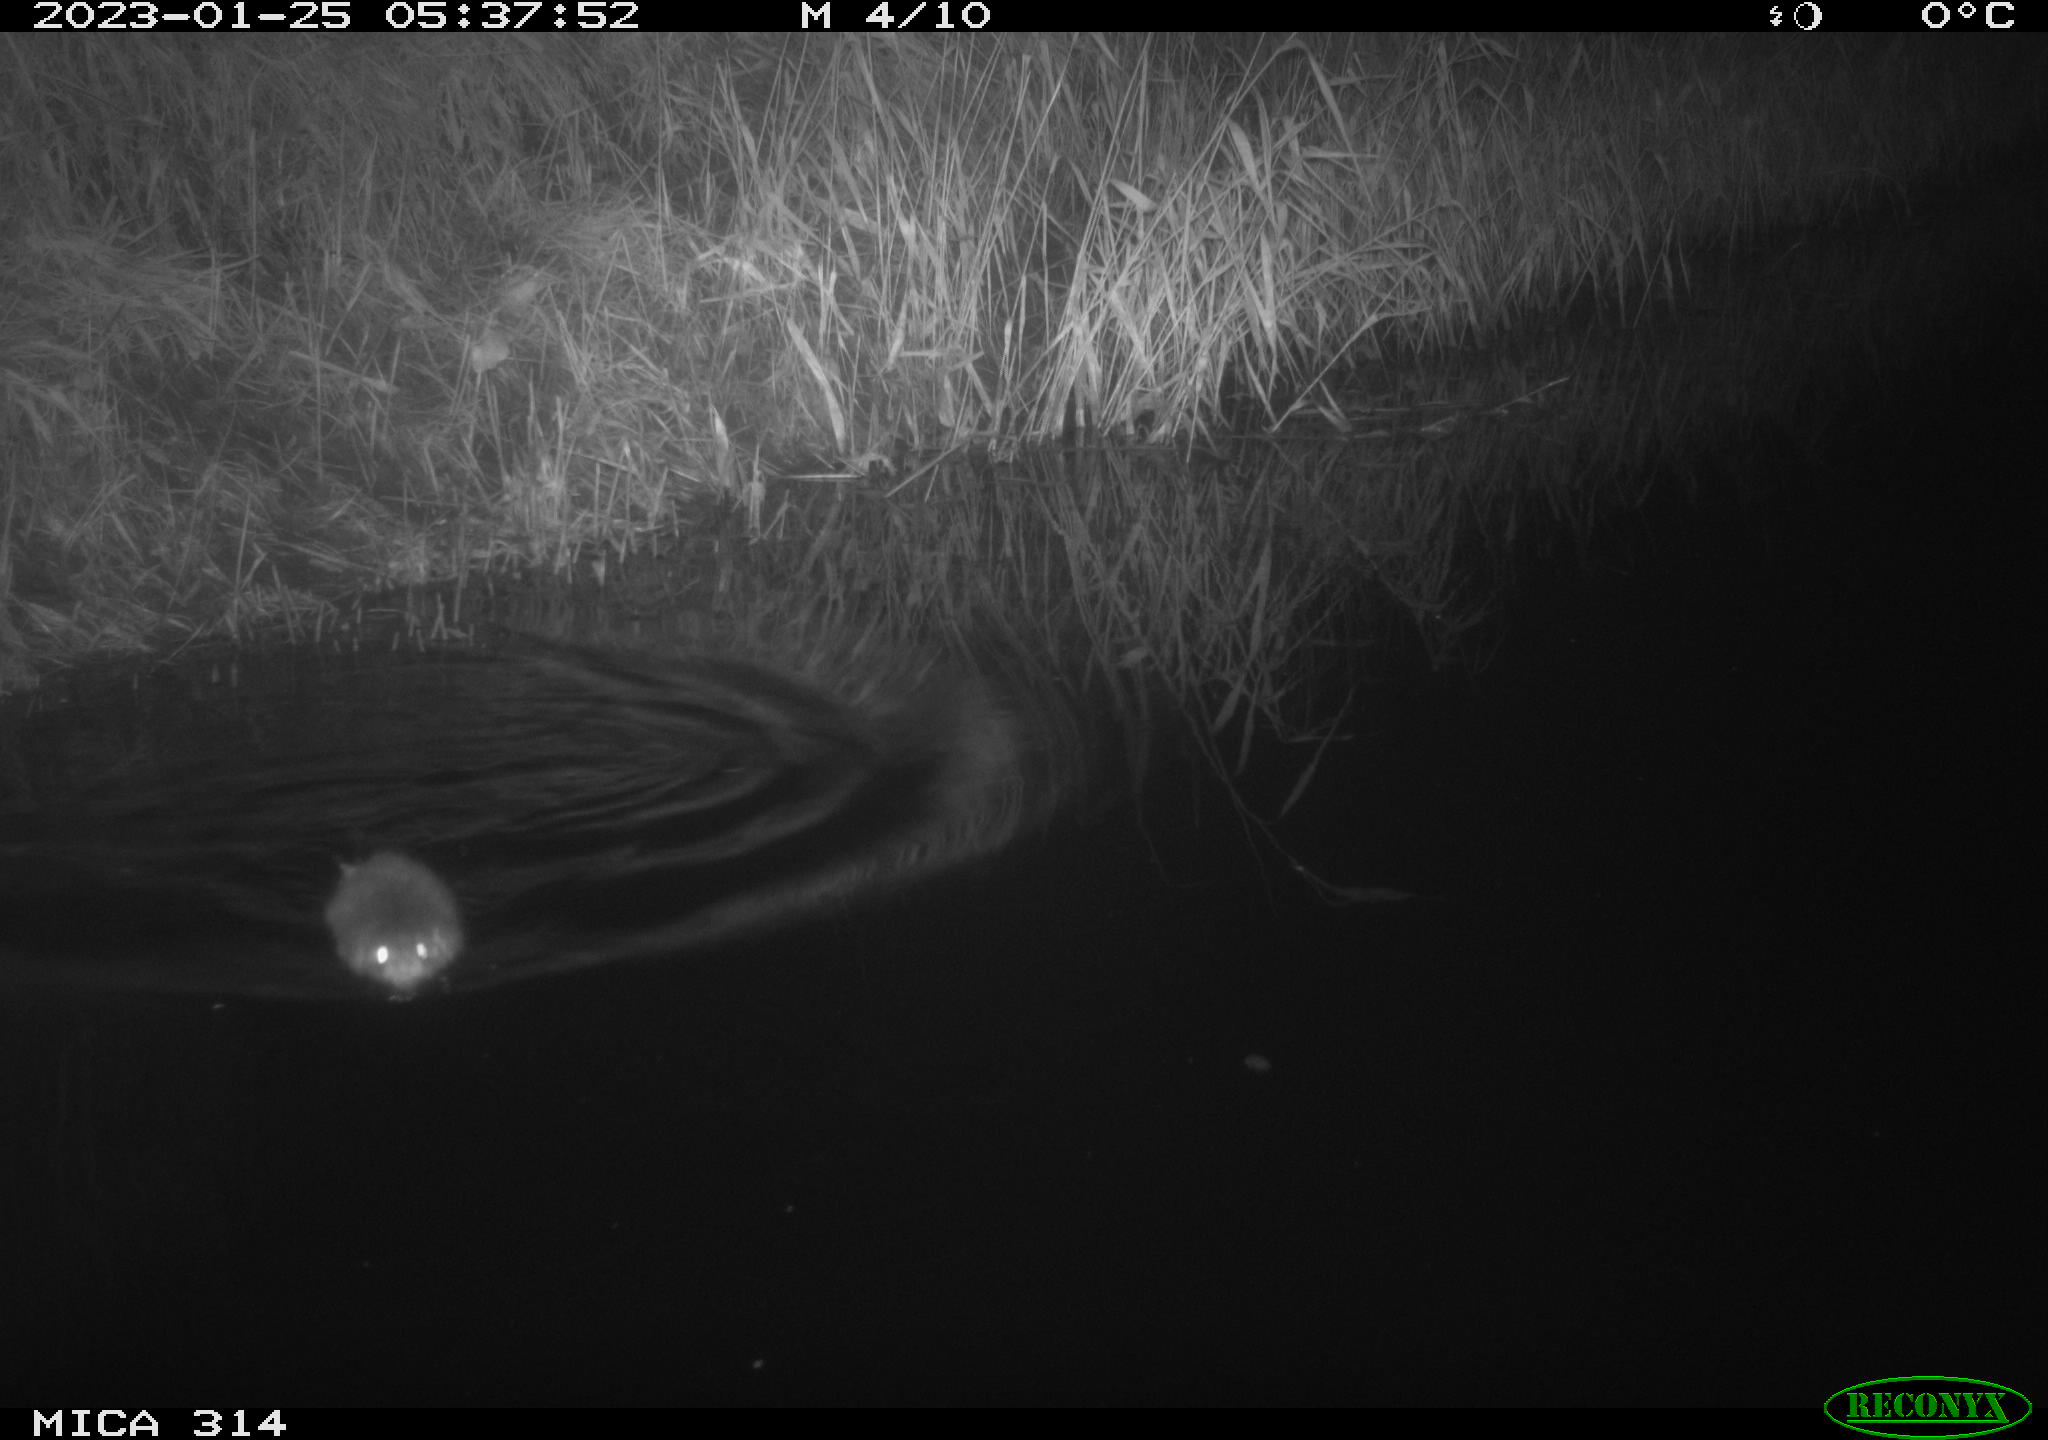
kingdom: Animalia
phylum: Chordata
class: Mammalia
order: Rodentia
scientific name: Rodentia
